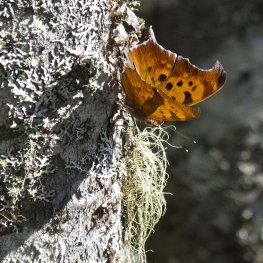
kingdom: Animalia
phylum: Arthropoda
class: Insecta
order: Lepidoptera
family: Nymphalidae
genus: Polygonia
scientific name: Polygonia interrogationis
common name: Question Mark
